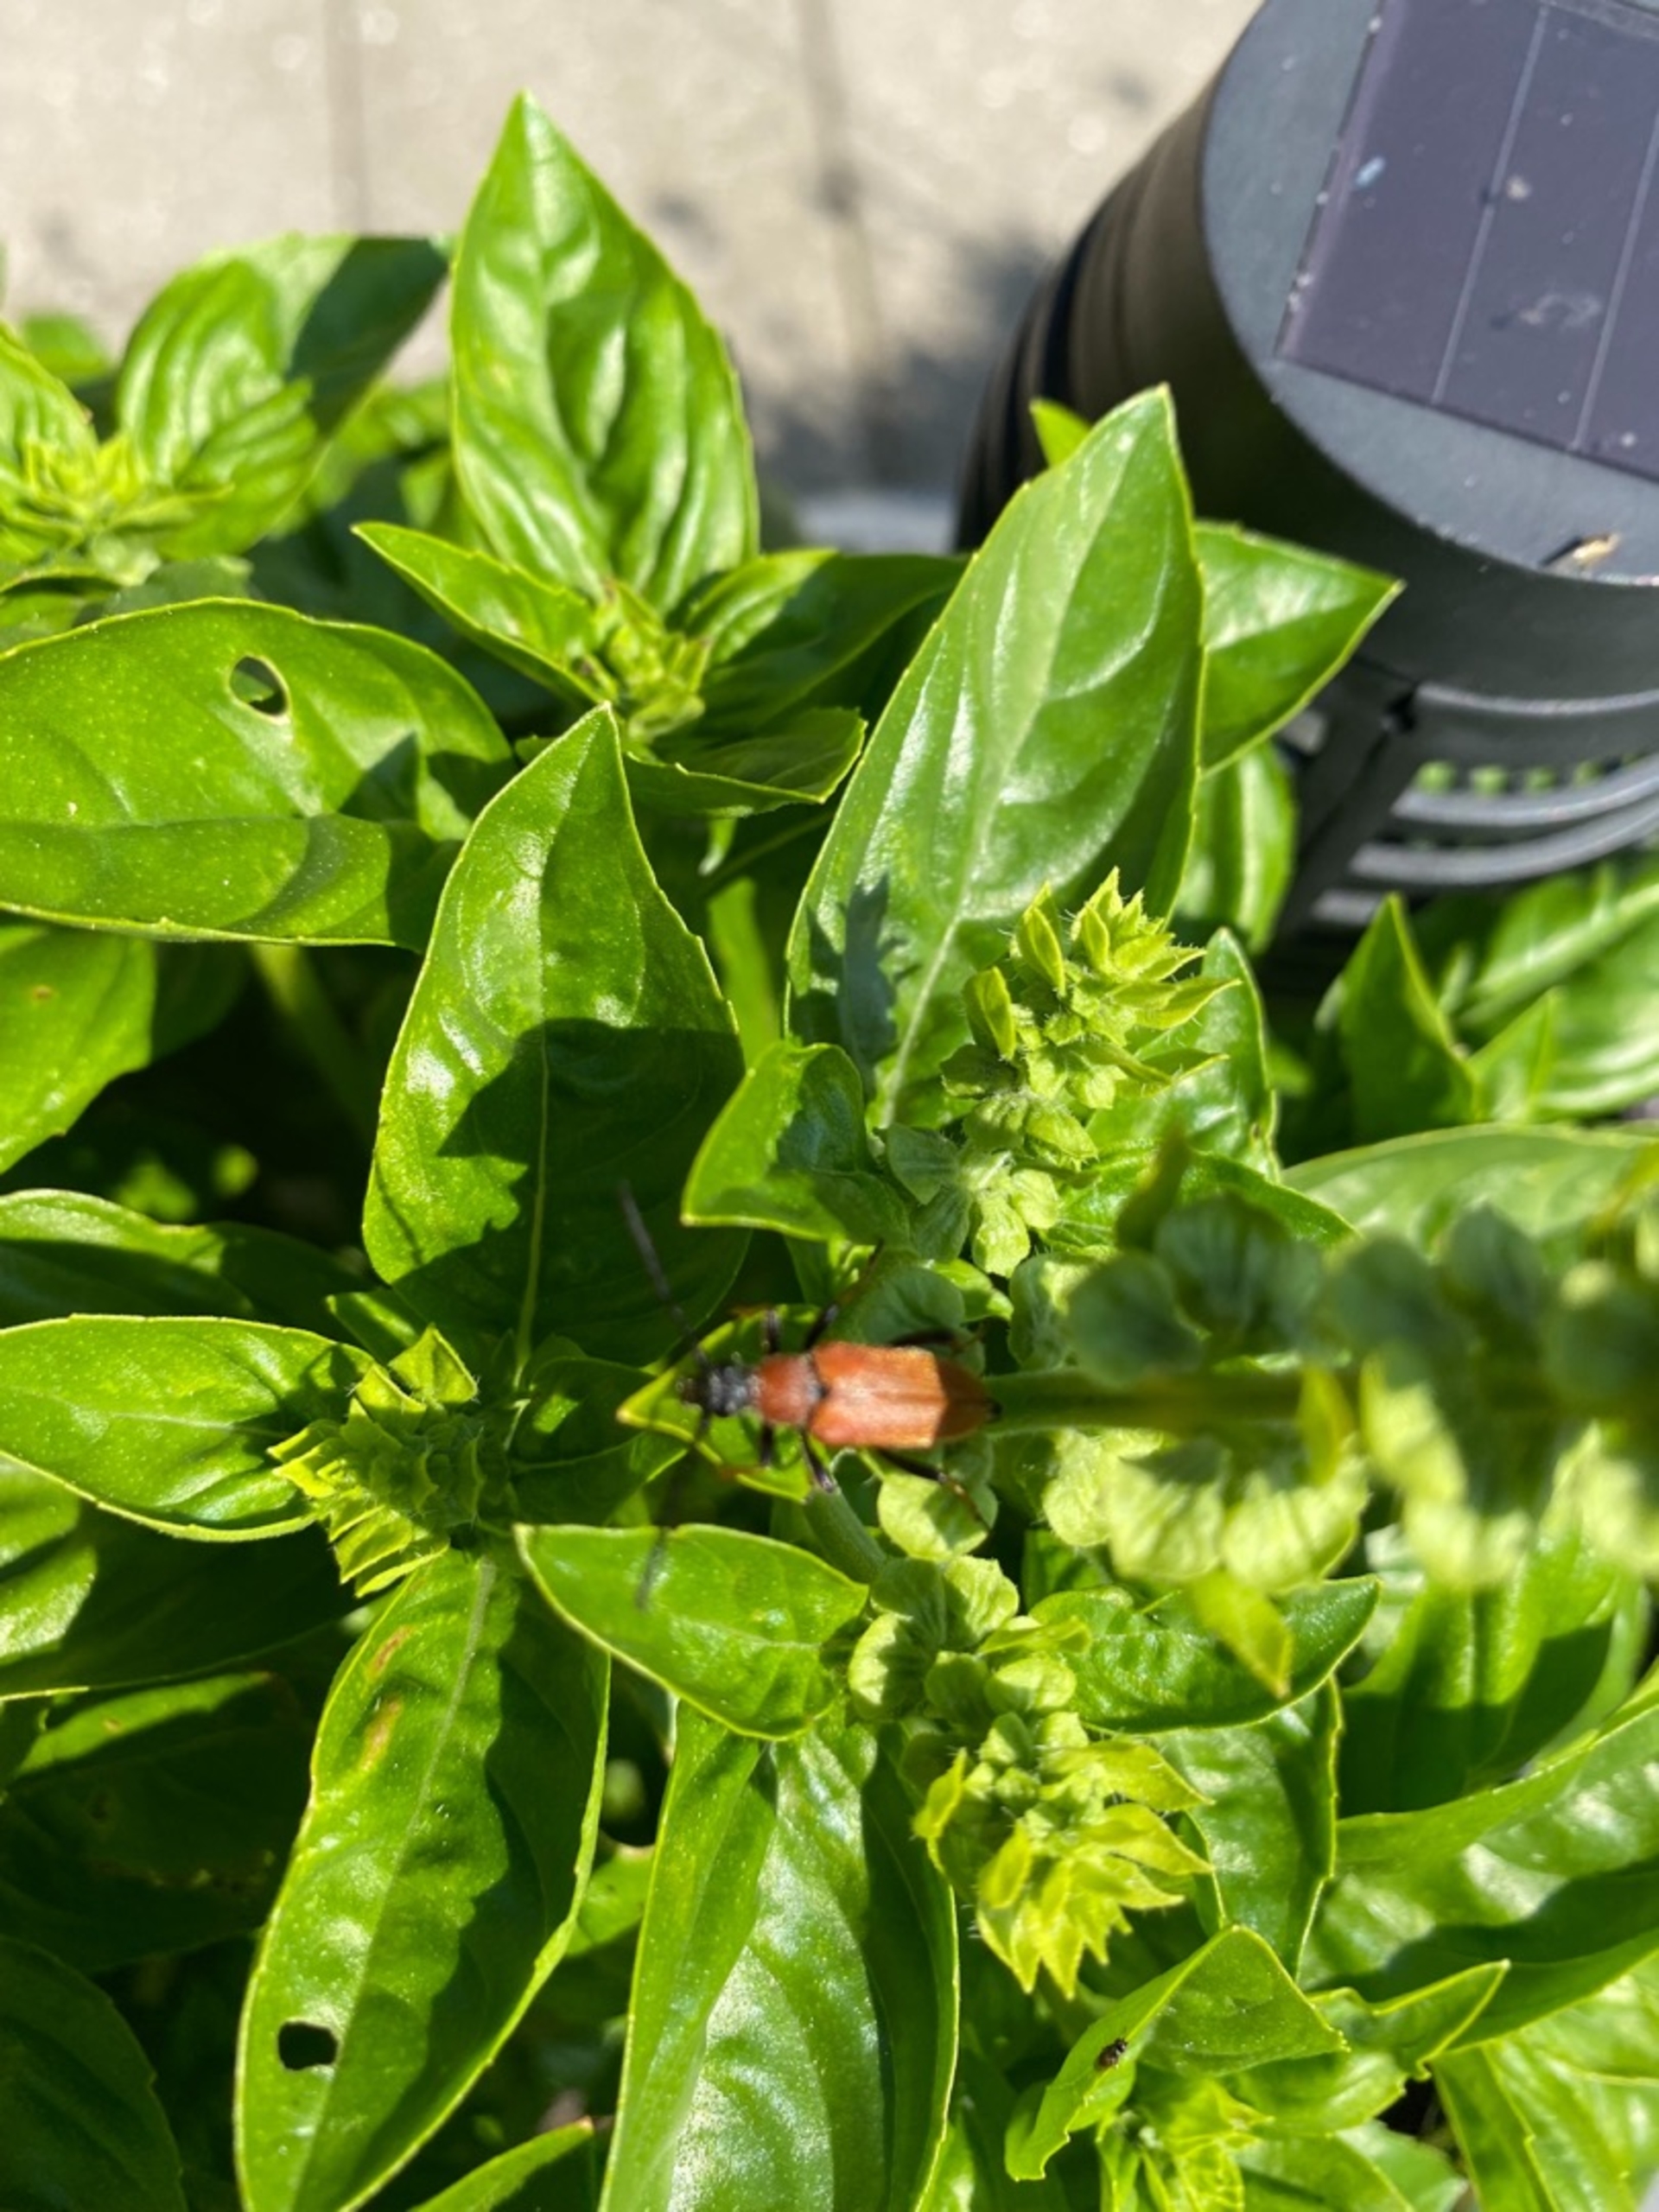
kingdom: Animalia
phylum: Arthropoda
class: Insecta
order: Coleoptera
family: Cerambycidae
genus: Stictoleptura
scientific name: Stictoleptura rubra
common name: Rød blomsterbuk
